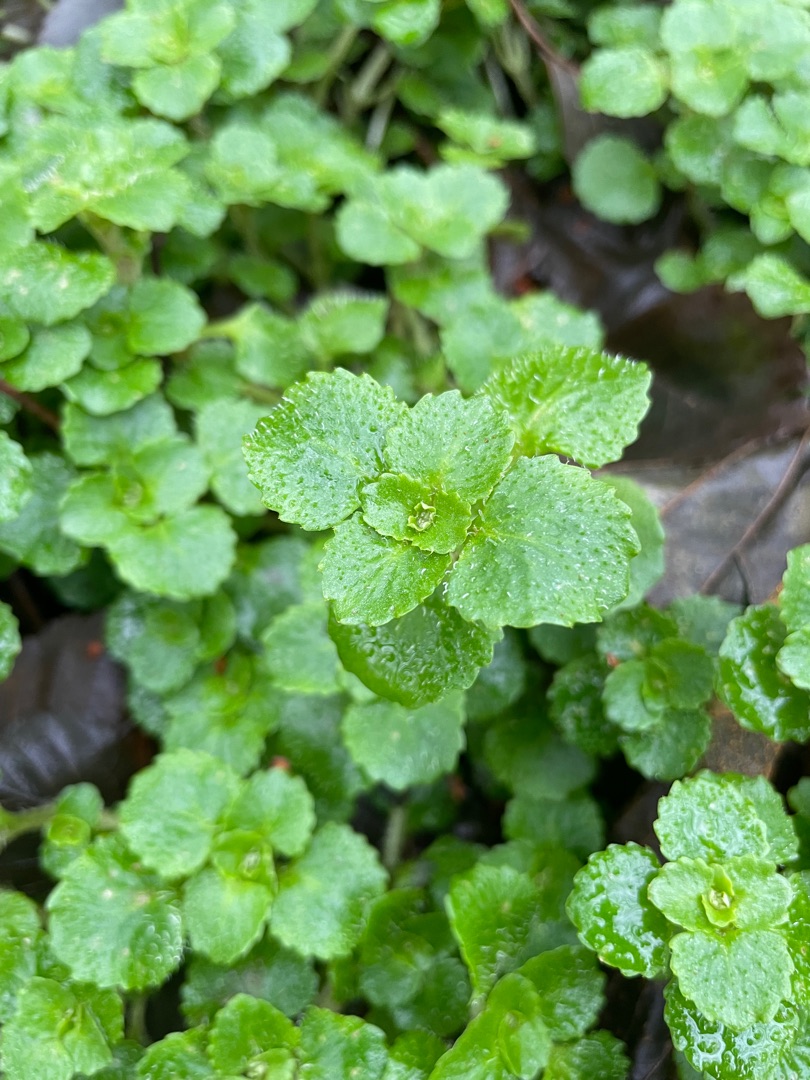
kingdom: Plantae
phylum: Tracheophyta
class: Magnoliopsida
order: Saxifragales
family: Saxifragaceae
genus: Chrysosplenium
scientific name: Chrysosplenium oppositifolium
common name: Småbladet milturt
